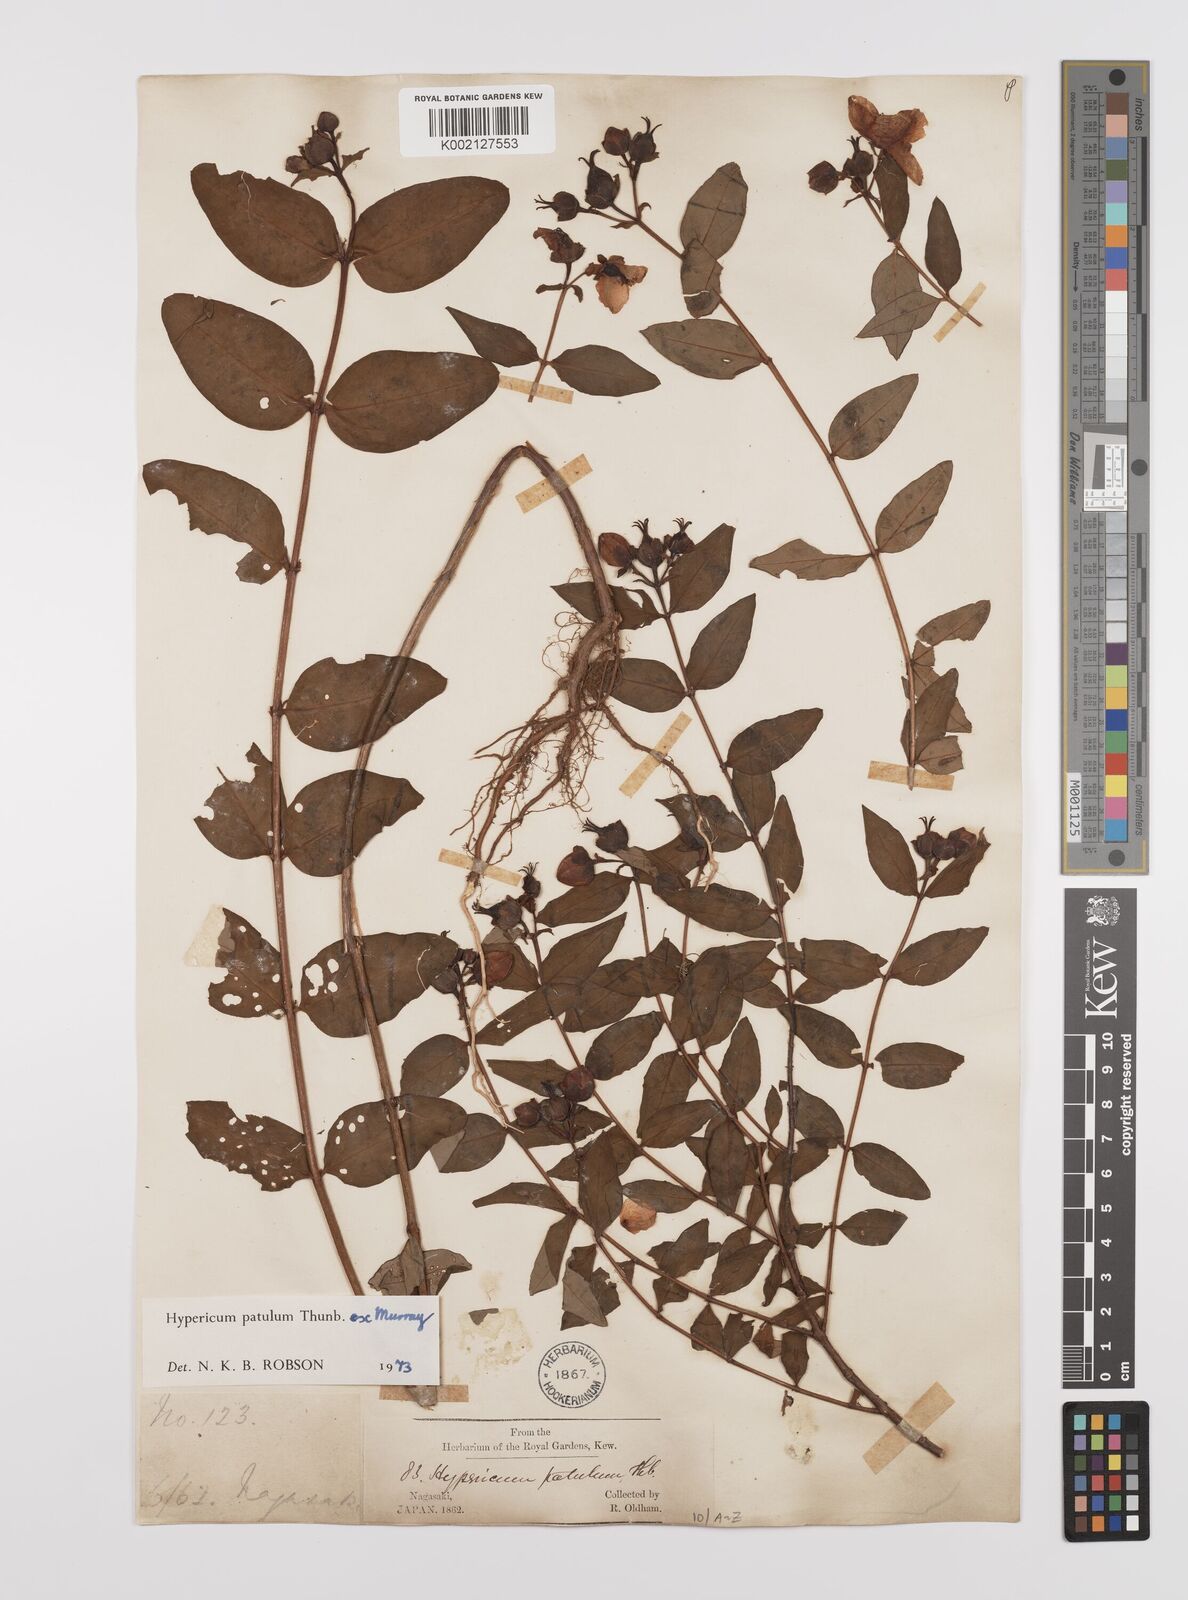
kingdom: Plantae
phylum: Tracheophyta
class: Magnoliopsida
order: Malpighiales
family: Hypericaceae
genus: Hypericum
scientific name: Hypericum patulum
